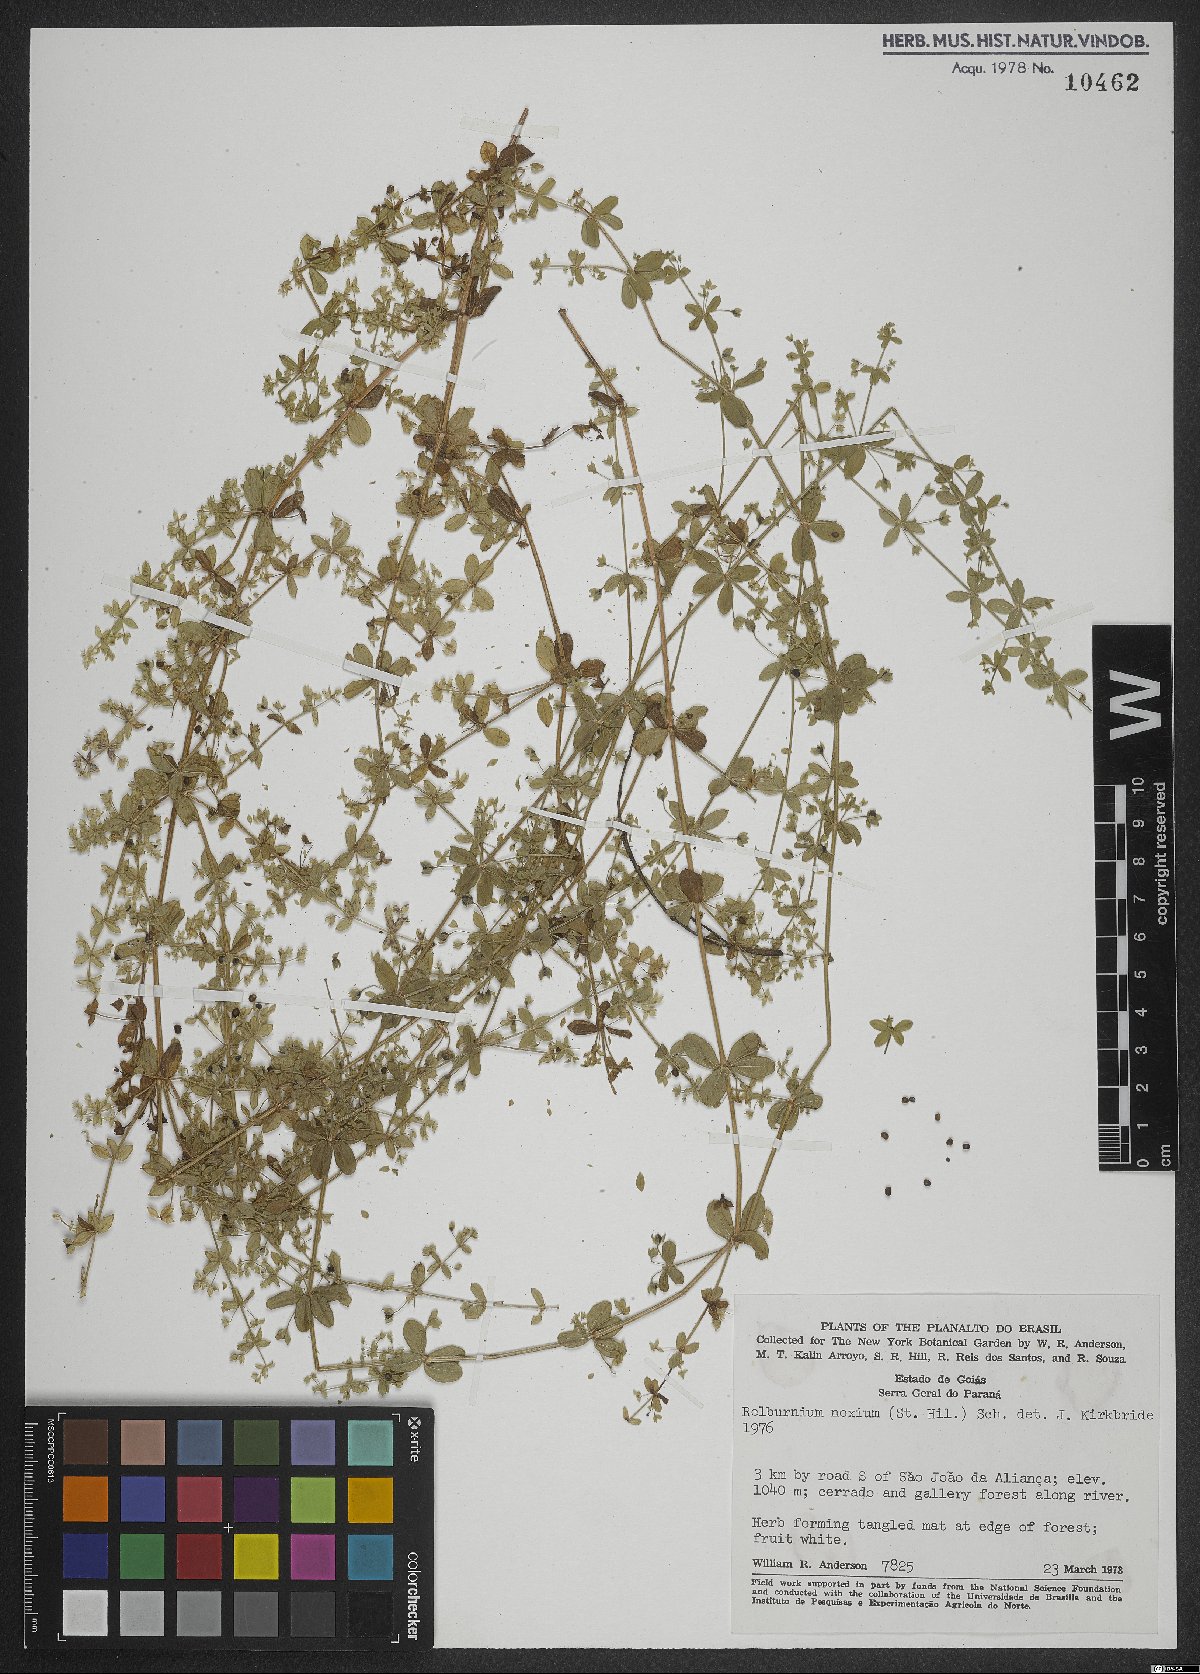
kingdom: Plantae
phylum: Tracheophyta
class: Magnoliopsida
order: Gentianales
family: Rubiaceae
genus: Galium
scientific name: Galium noxium
